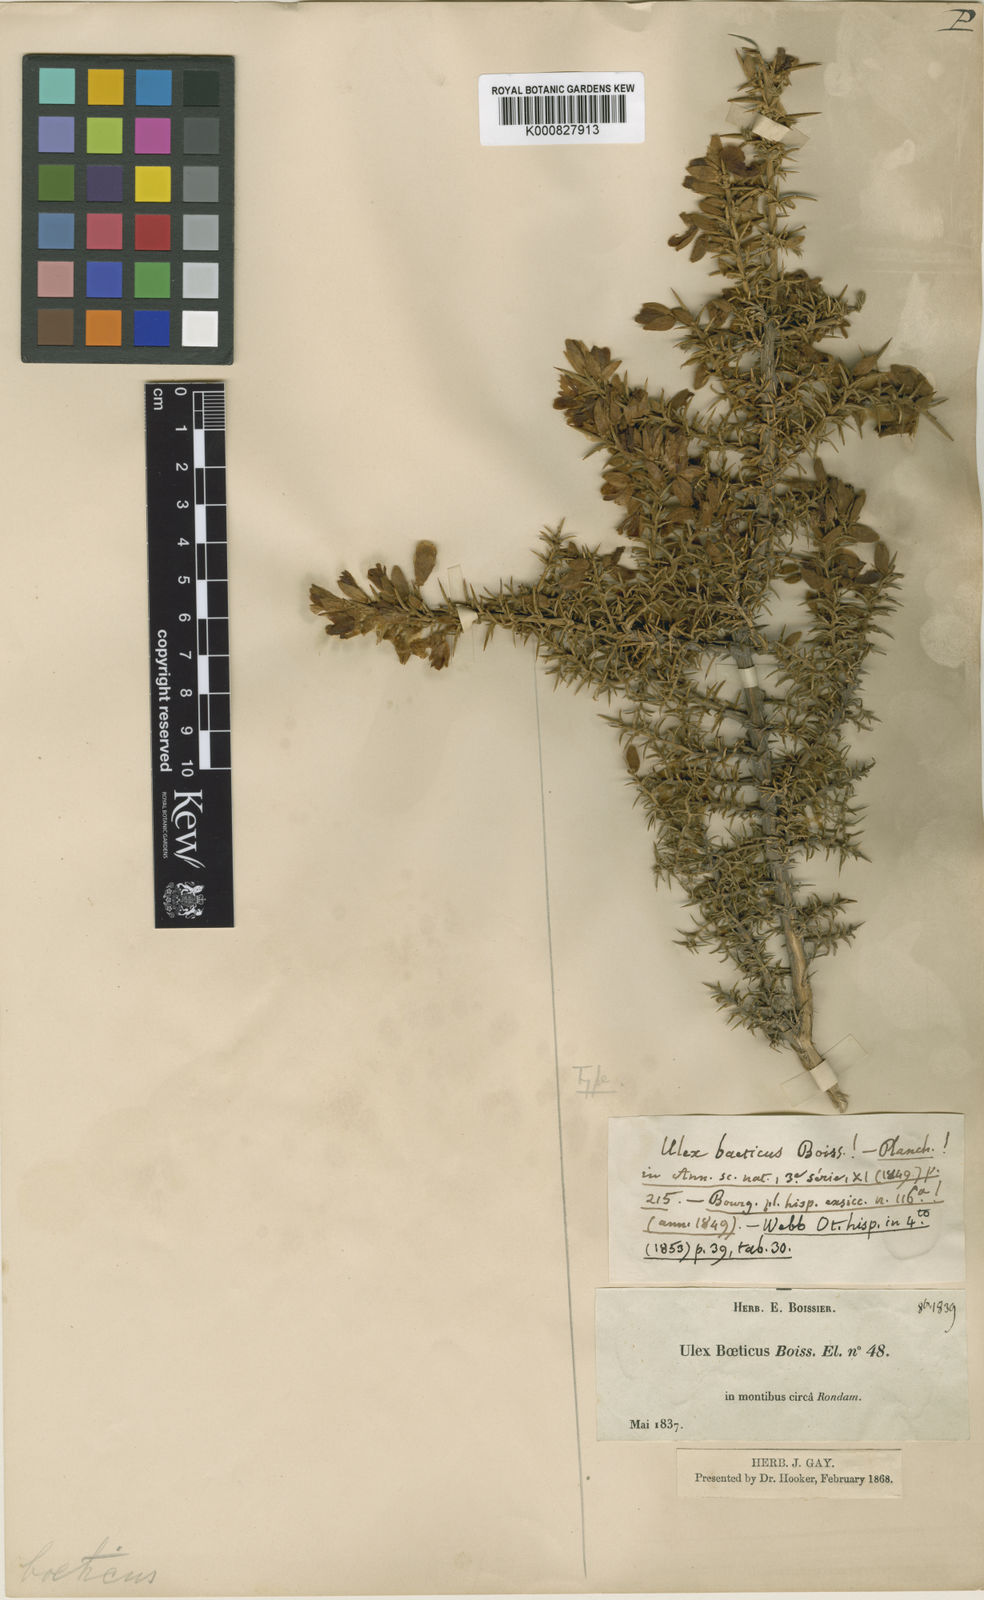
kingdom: Plantae
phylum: Tracheophyta
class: Magnoliopsida
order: Fabales
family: Fabaceae
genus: Ulex
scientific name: Ulex parviflorus
